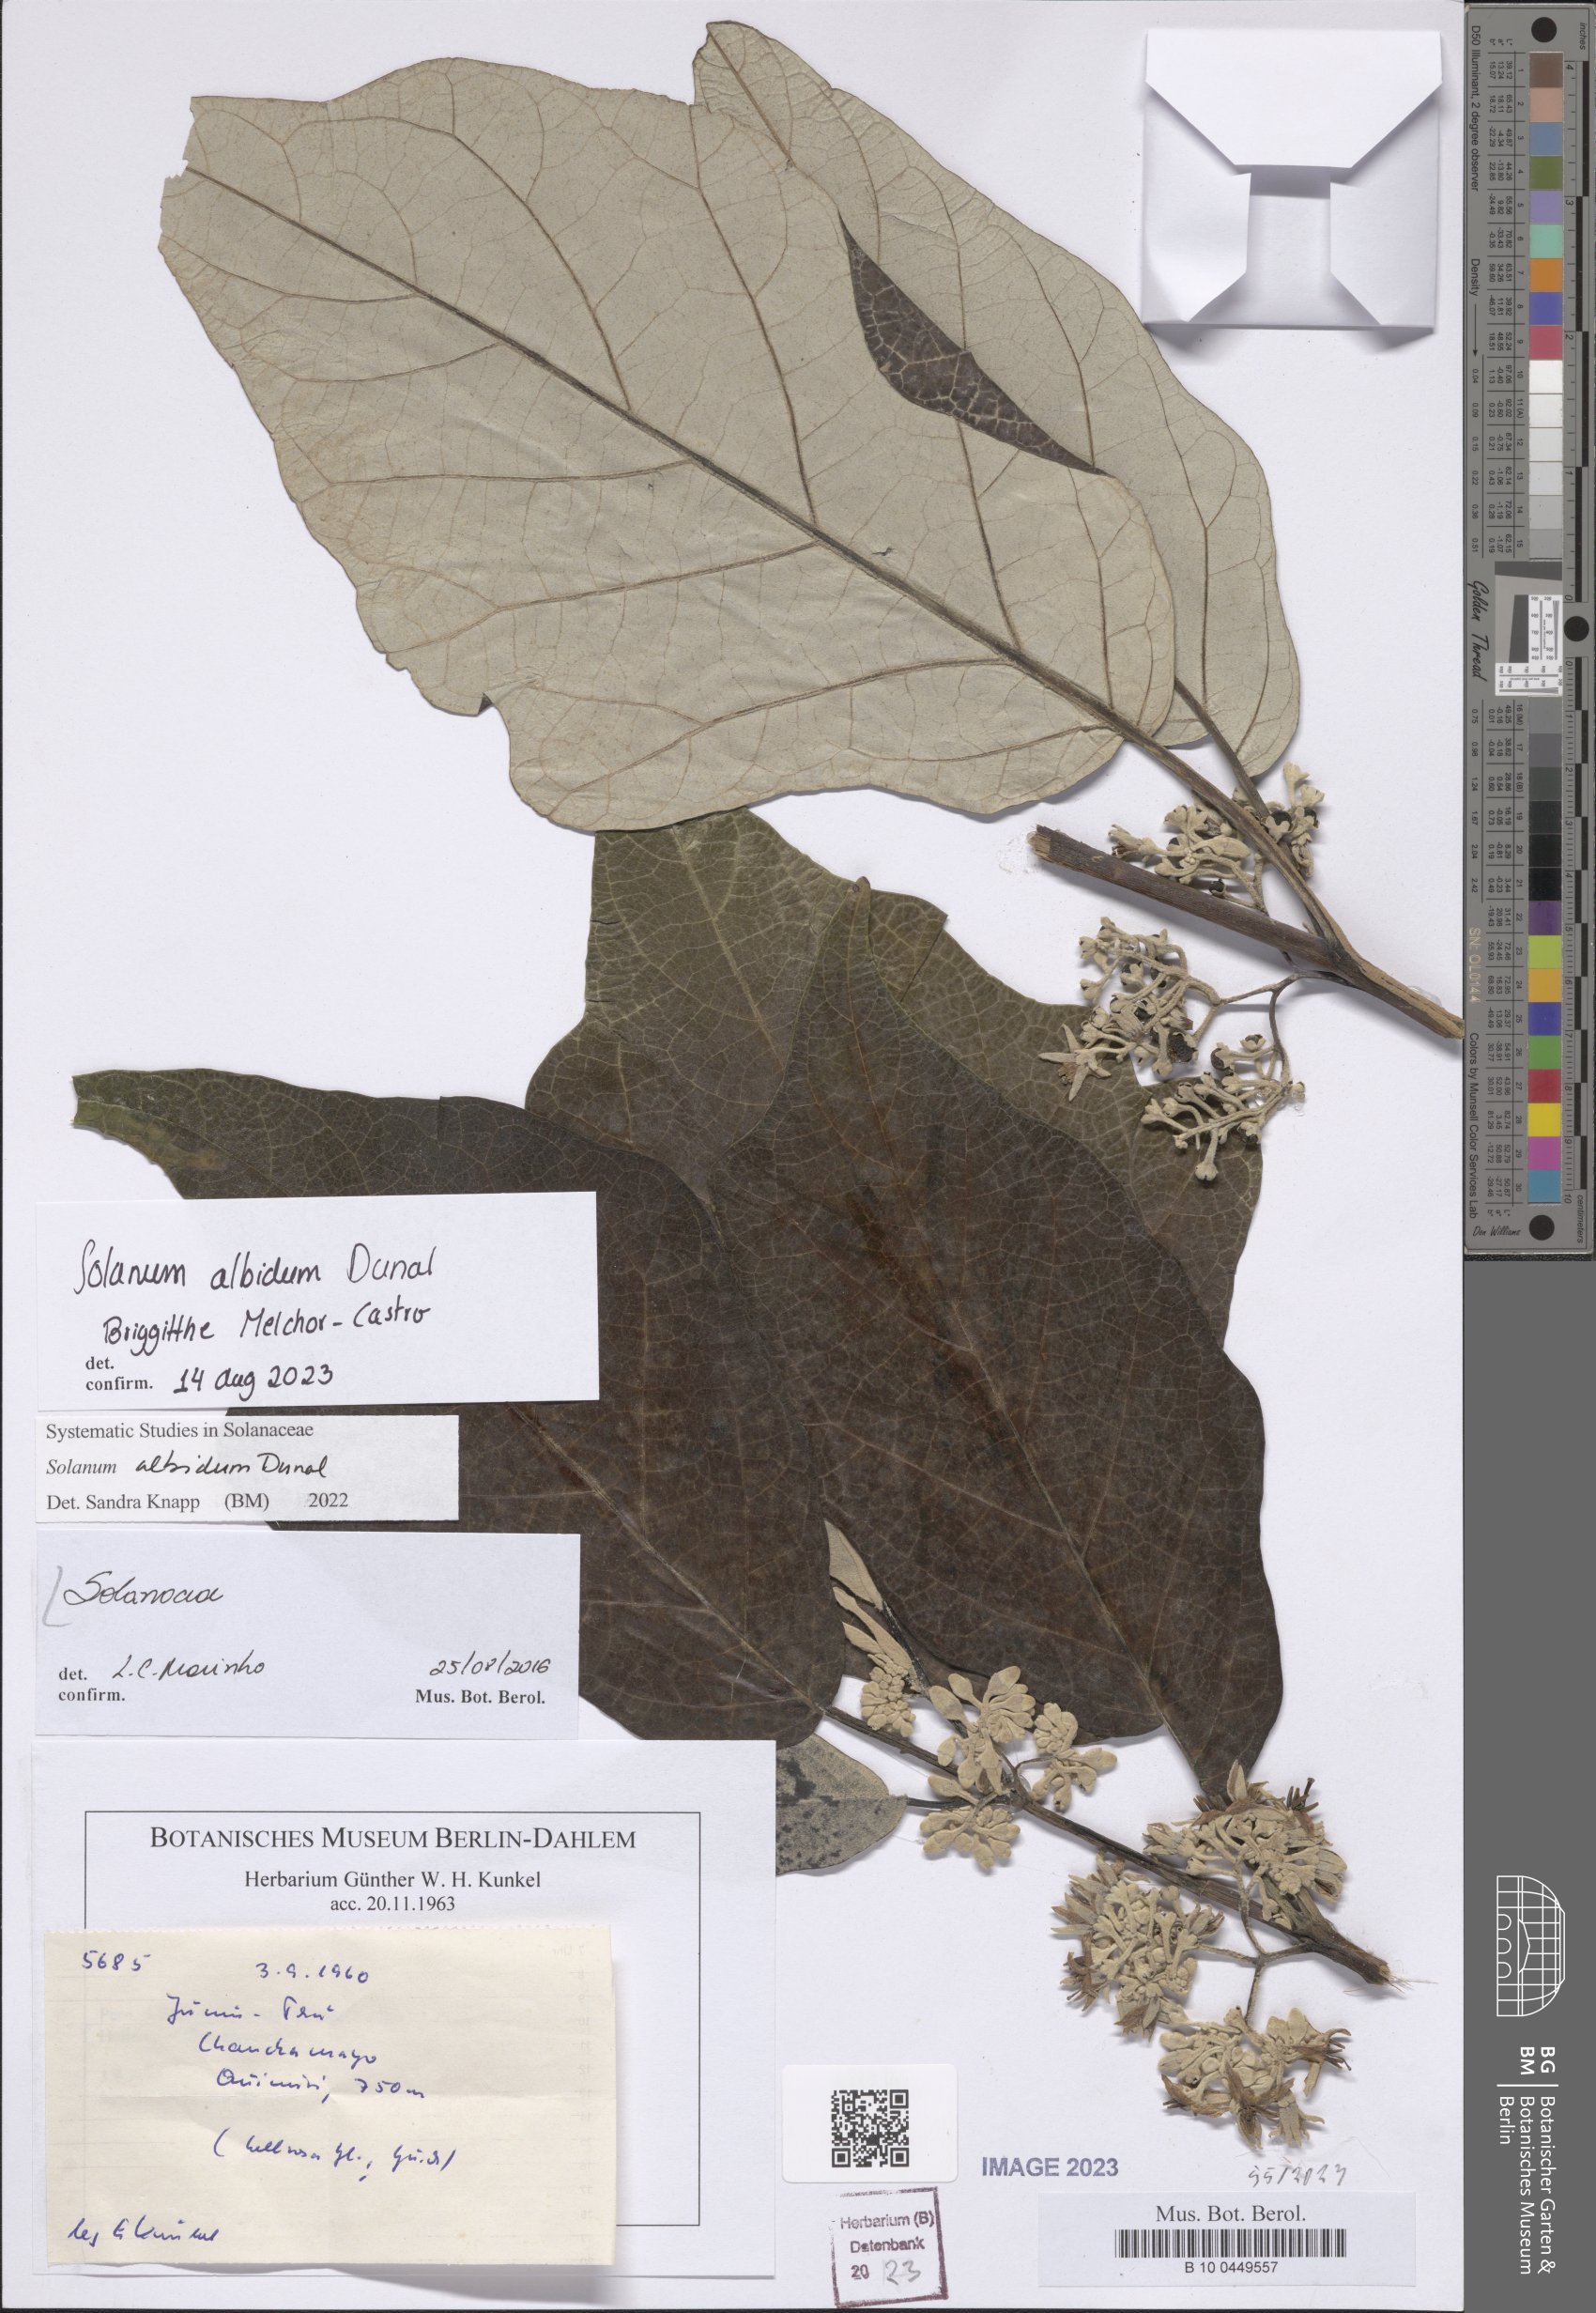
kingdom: Plantae
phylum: Tracheophyta
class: Magnoliopsida
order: Solanales
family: Solanaceae
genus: Solanum
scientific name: Solanum albidum
